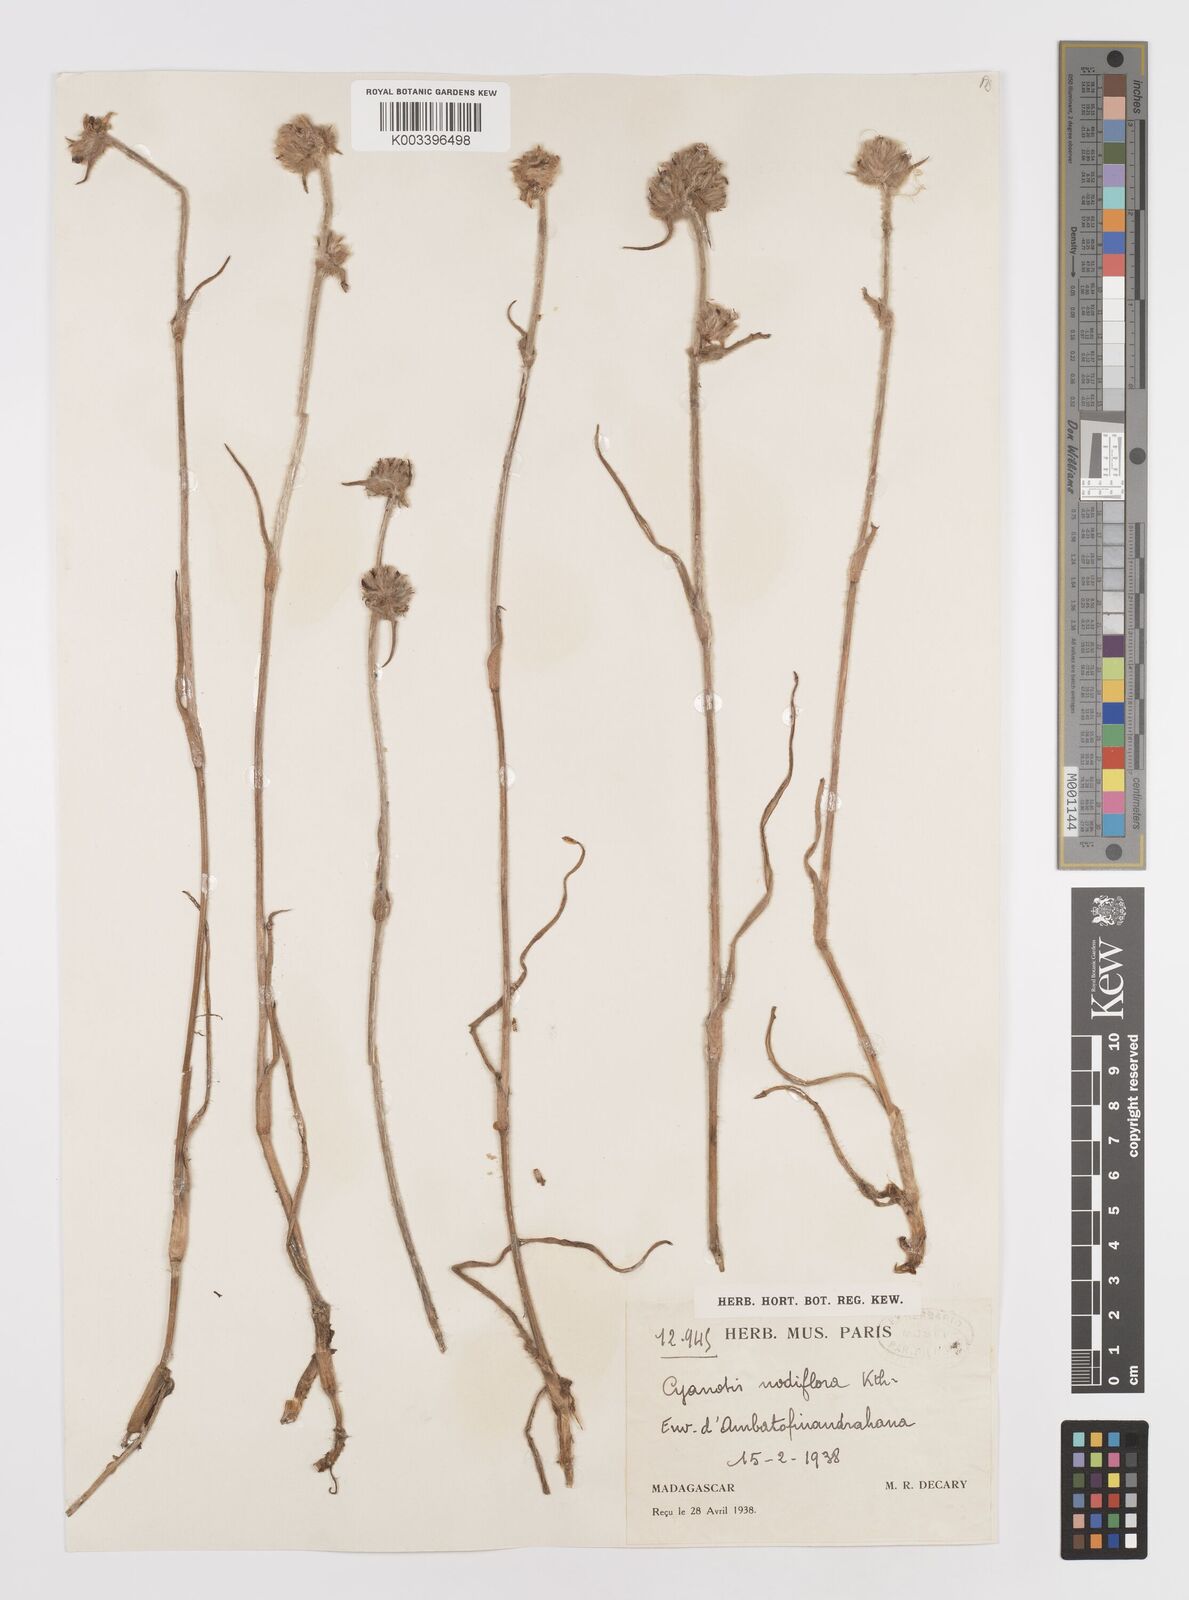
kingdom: Plantae
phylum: Tracheophyta
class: Liliopsida
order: Commelinales
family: Commelinaceae
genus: Cyanotis
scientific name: Cyanotis speciosa
